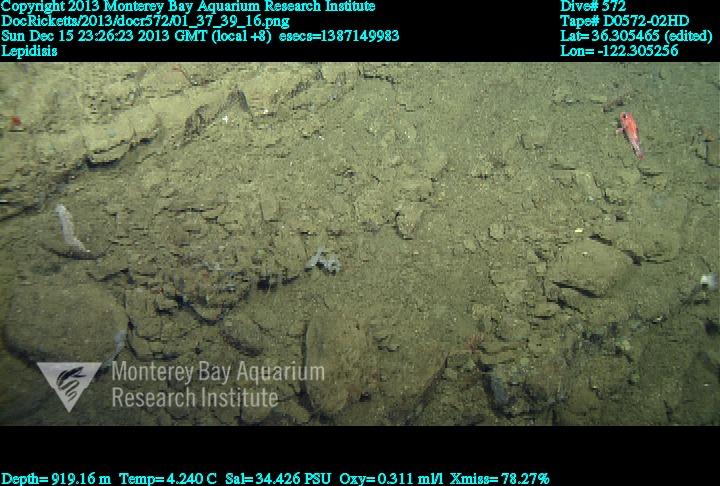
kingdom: Animalia
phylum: Cnidaria
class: Anthozoa
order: Scleralcyonacea
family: Keratoisididae
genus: Lepidisis
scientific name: Lepidisis
